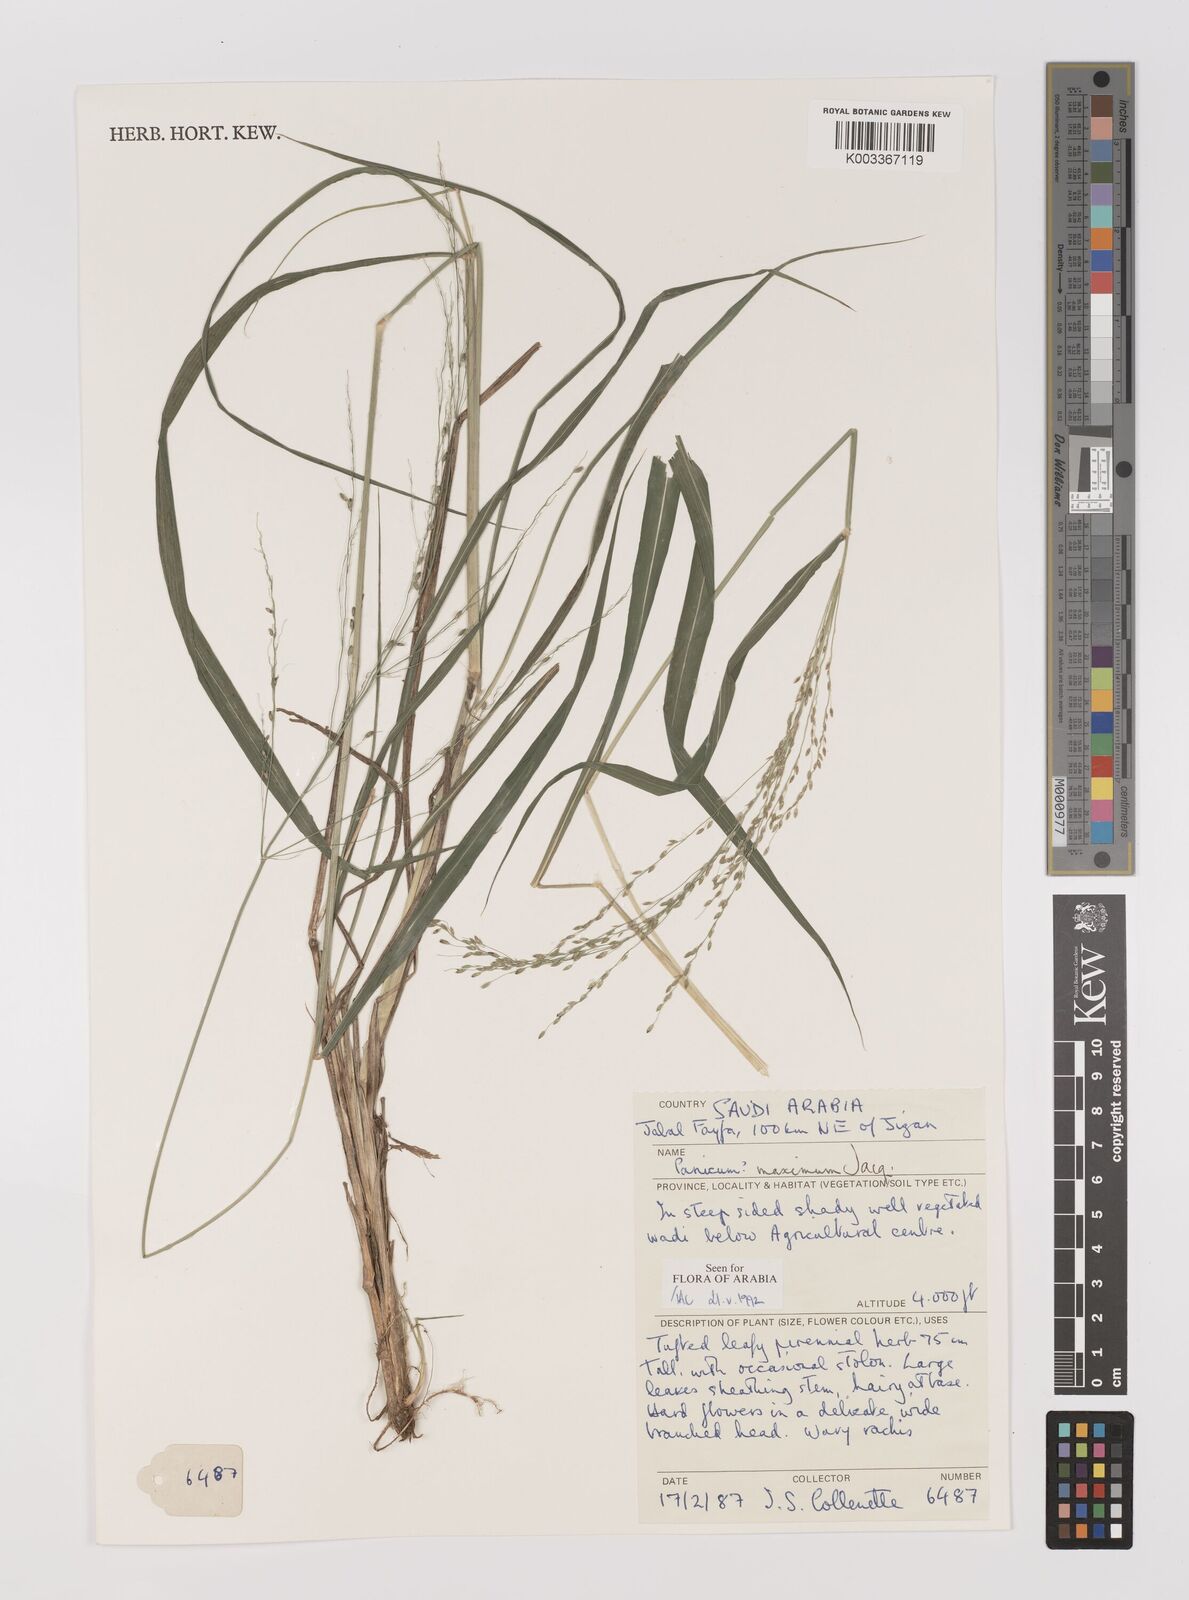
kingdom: Plantae
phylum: Tracheophyta
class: Liliopsida
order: Poales
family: Poaceae
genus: Megathyrsus
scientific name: Megathyrsus maximus
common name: Guineagrass
